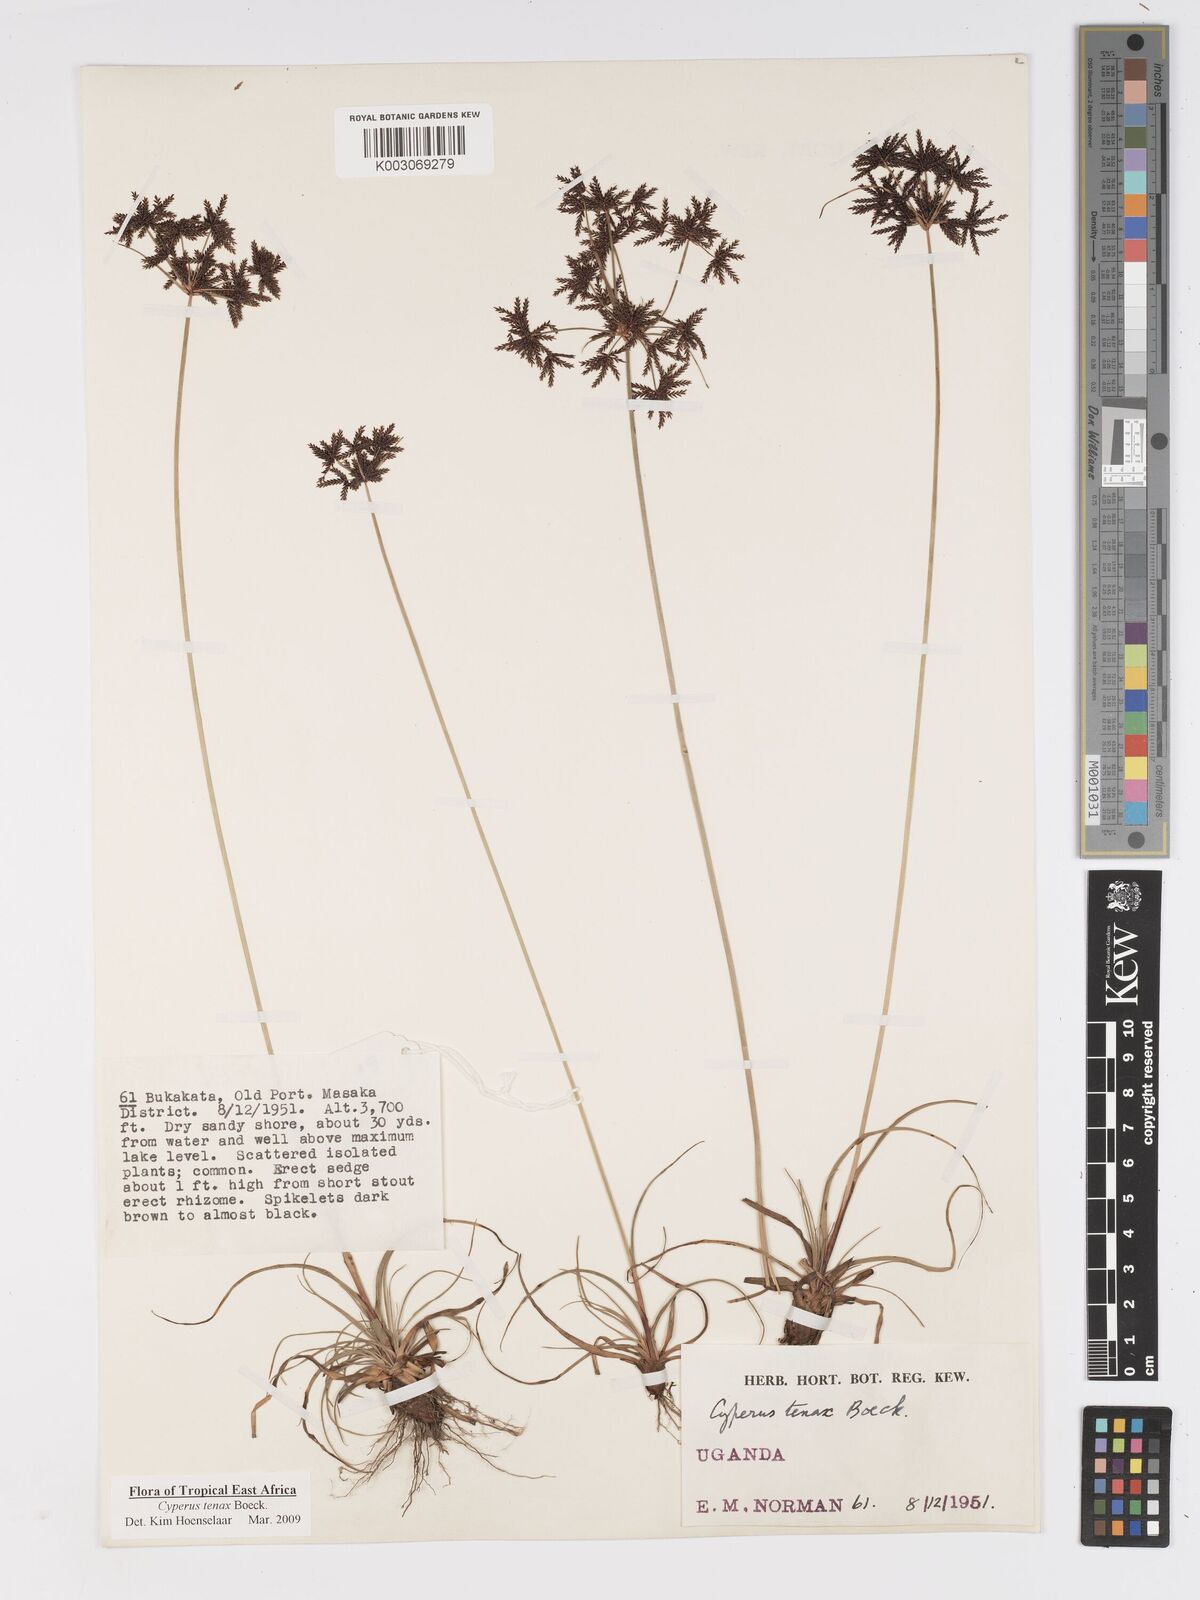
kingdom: Plantae
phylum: Tracheophyta
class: Liliopsida
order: Poales
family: Cyperaceae
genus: Cyperus
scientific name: Cyperus tenax
